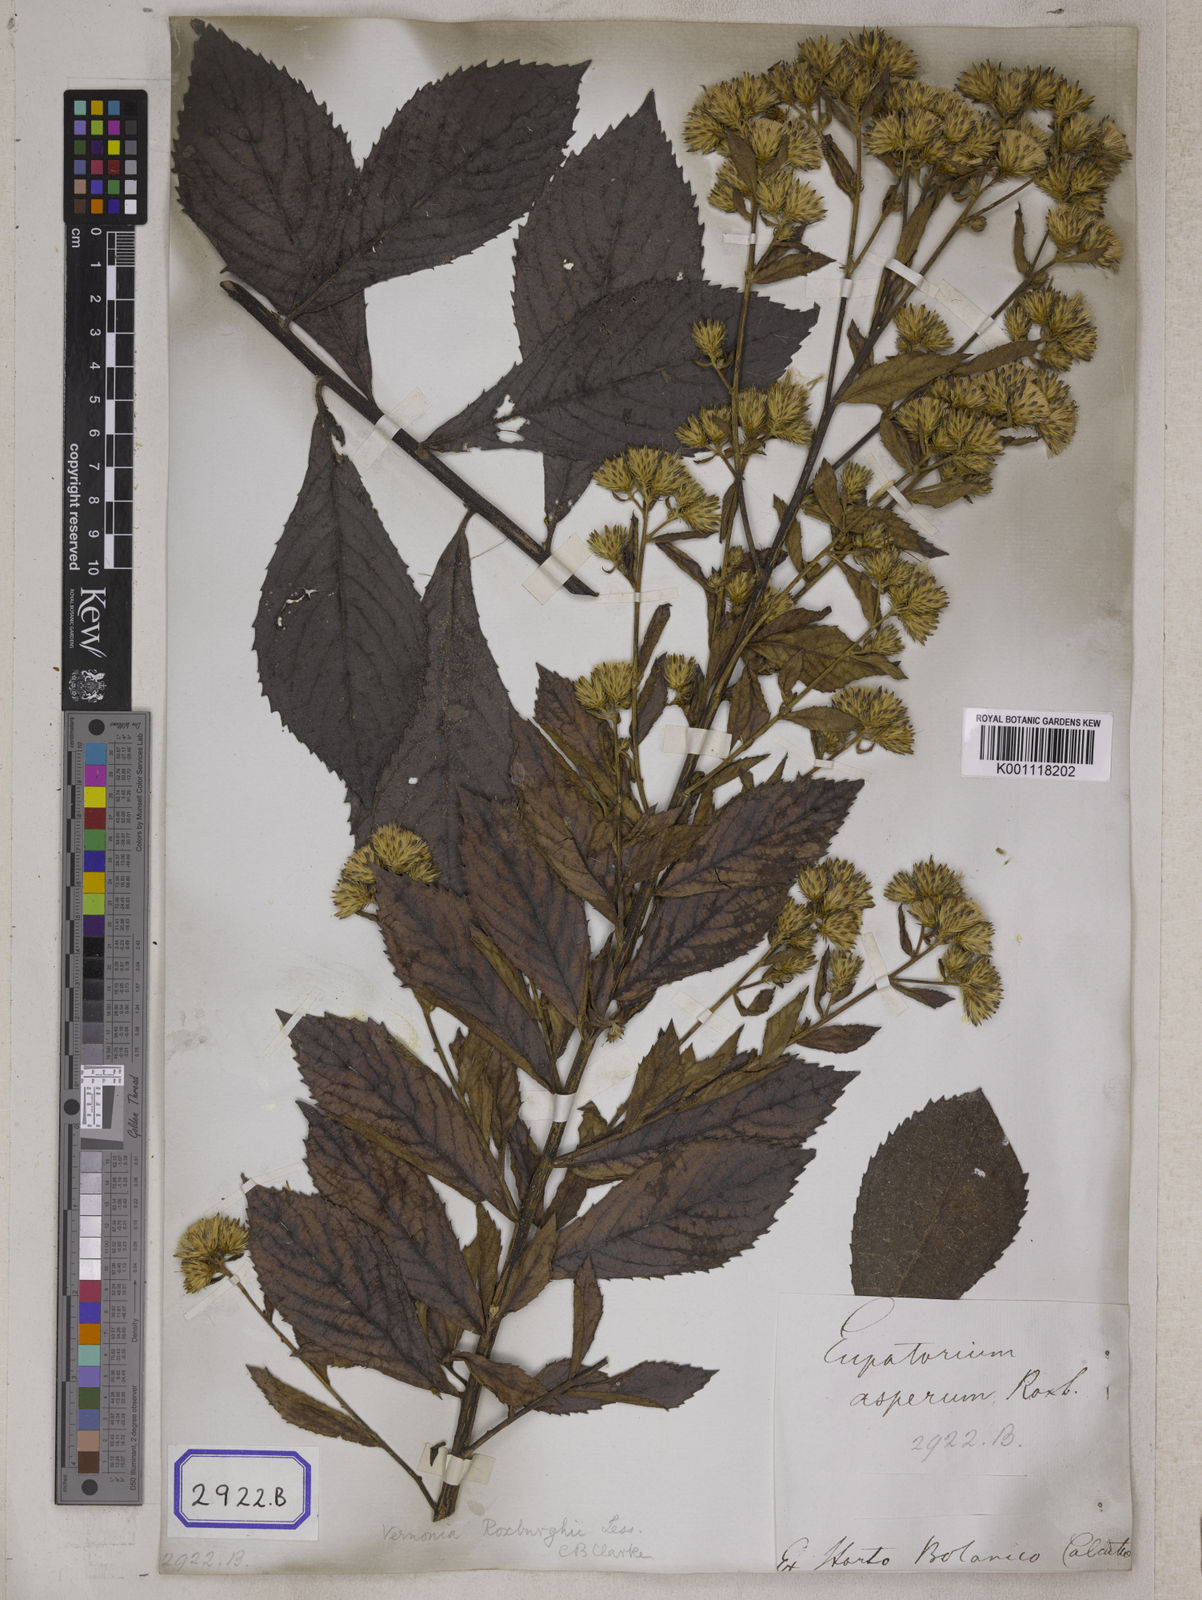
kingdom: Plantae
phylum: Tracheophyta
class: Magnoliopsida
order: Asterales
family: Asteraceae
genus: Vernonia
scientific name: Vernonia
